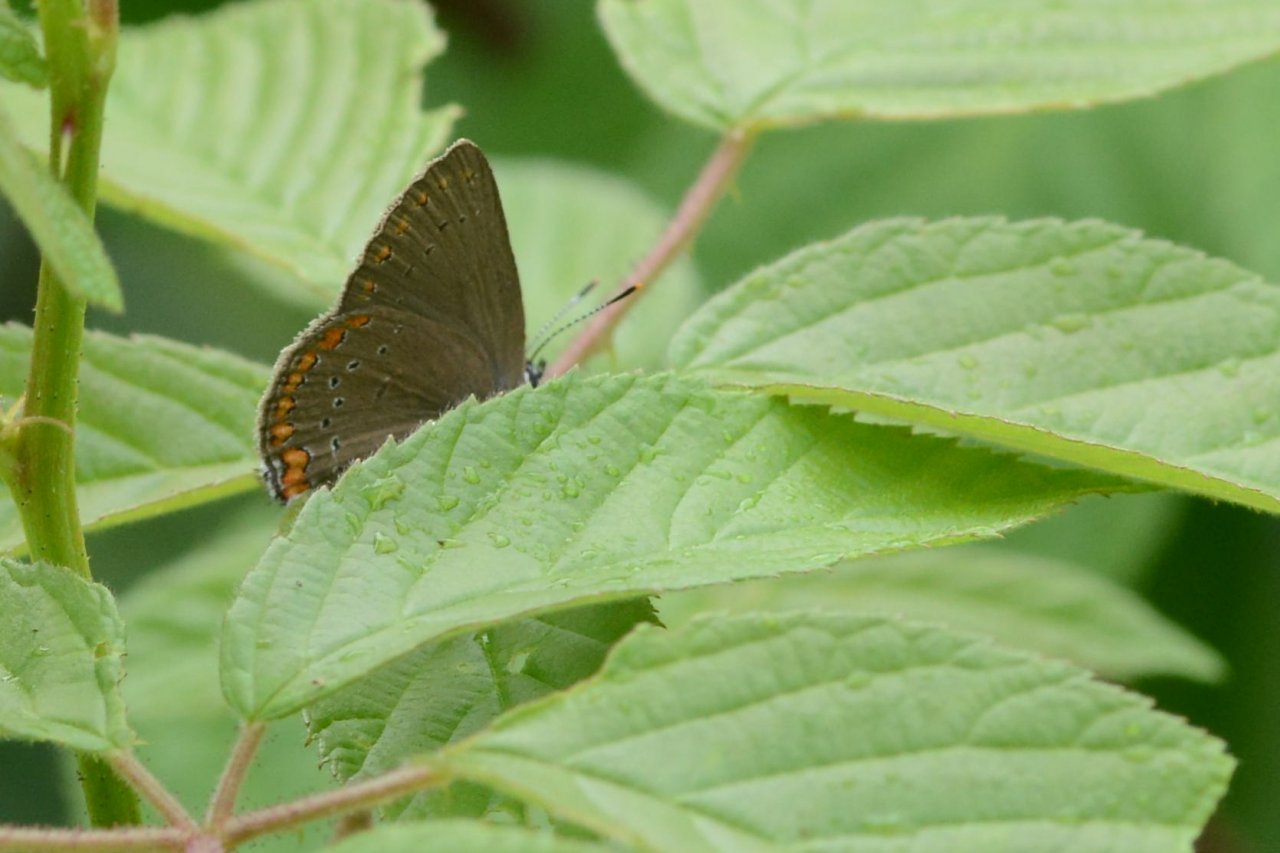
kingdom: Animalia
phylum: Arthropoda
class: Insecta
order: Lepidoptera
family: Lycaenidae
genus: Harkenclenus
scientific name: Harkenclenus titus
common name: Coral Hairstreak
